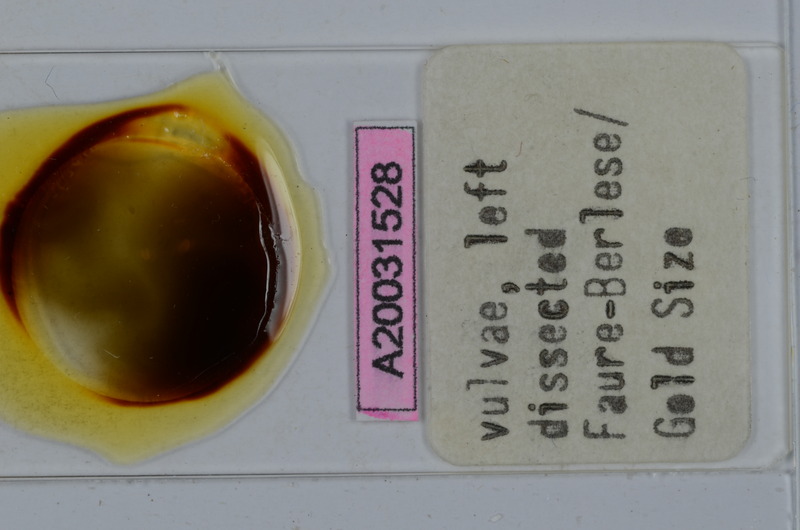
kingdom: Animalia
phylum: Arthropoda
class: Diplopoda
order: Julida
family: Julidae
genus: Calyptophyllum
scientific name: Calyptophyllum longiventre
